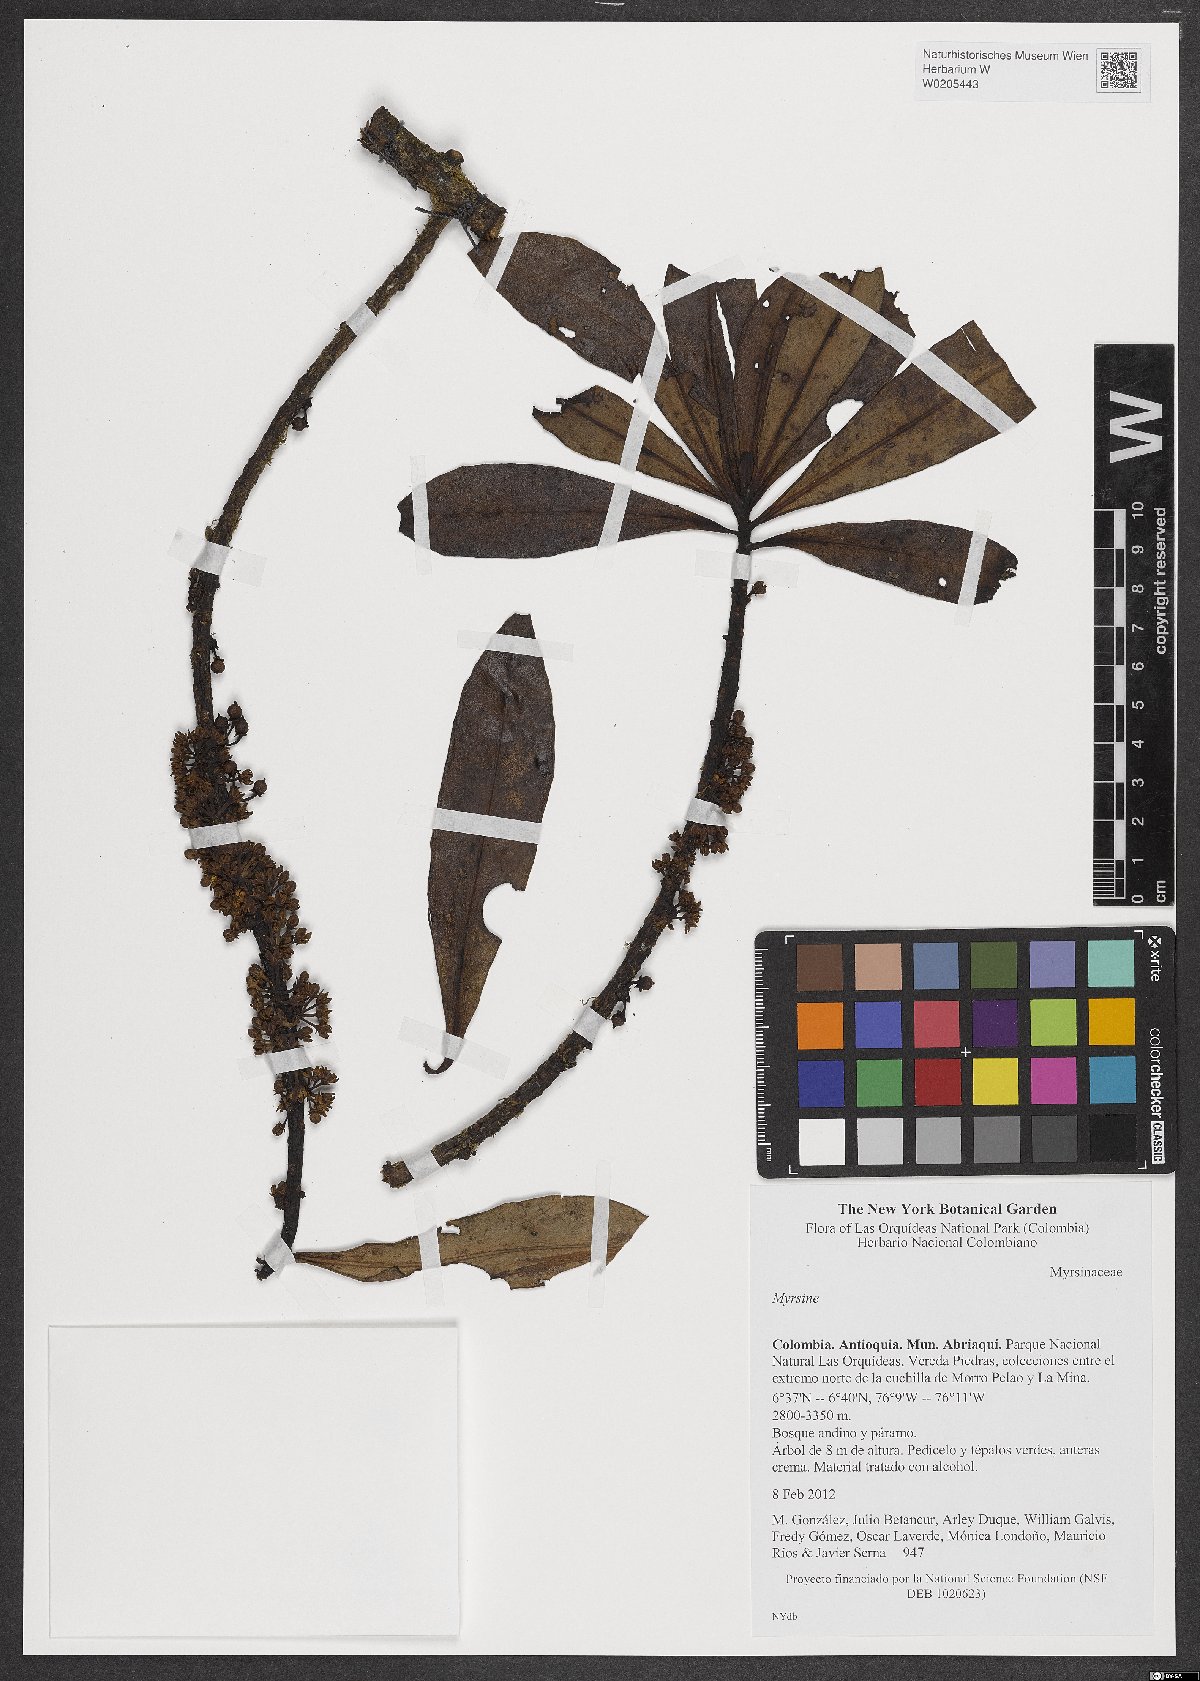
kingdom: Plantae
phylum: Tracheophyta
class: Magnoliopsida
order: Ericales
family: Primulaceae
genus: Myrsine
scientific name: Myrsine
